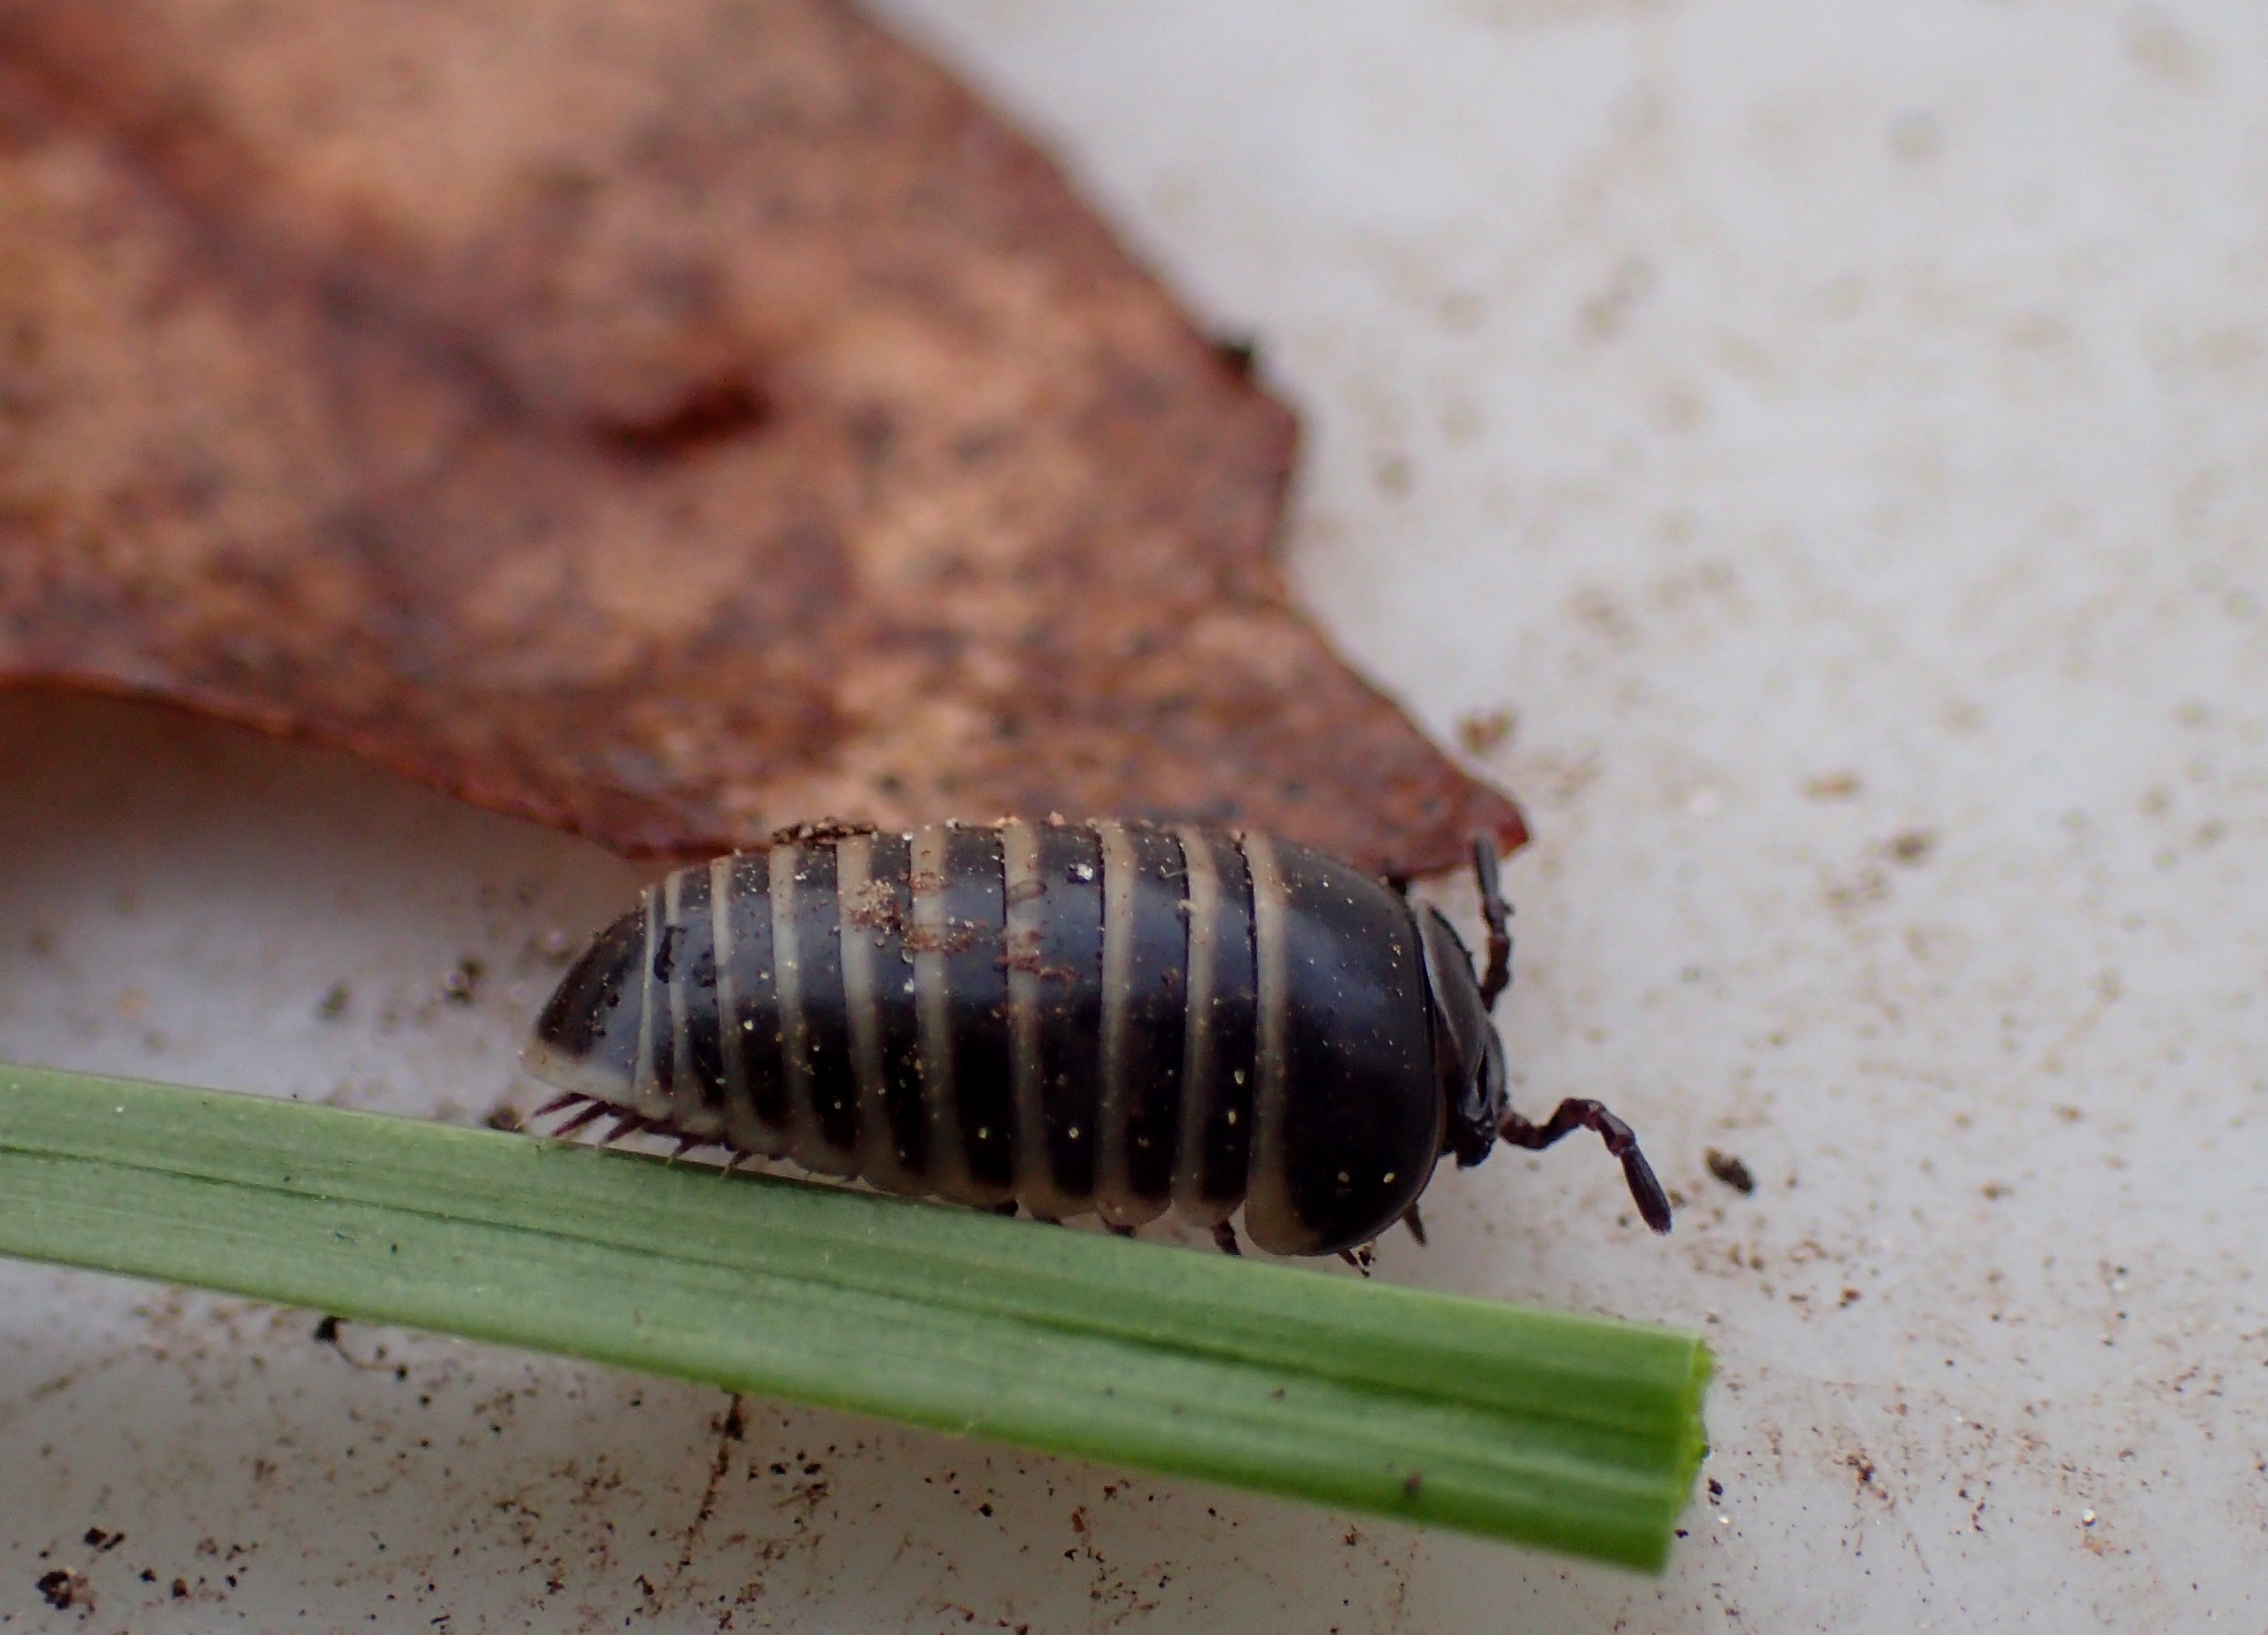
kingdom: Animalia
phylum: Arthropoda
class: Diplopoda
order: Glomerida
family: Glomeridae
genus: Glomeris
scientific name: Glomeris marginata
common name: Kugletusindben
